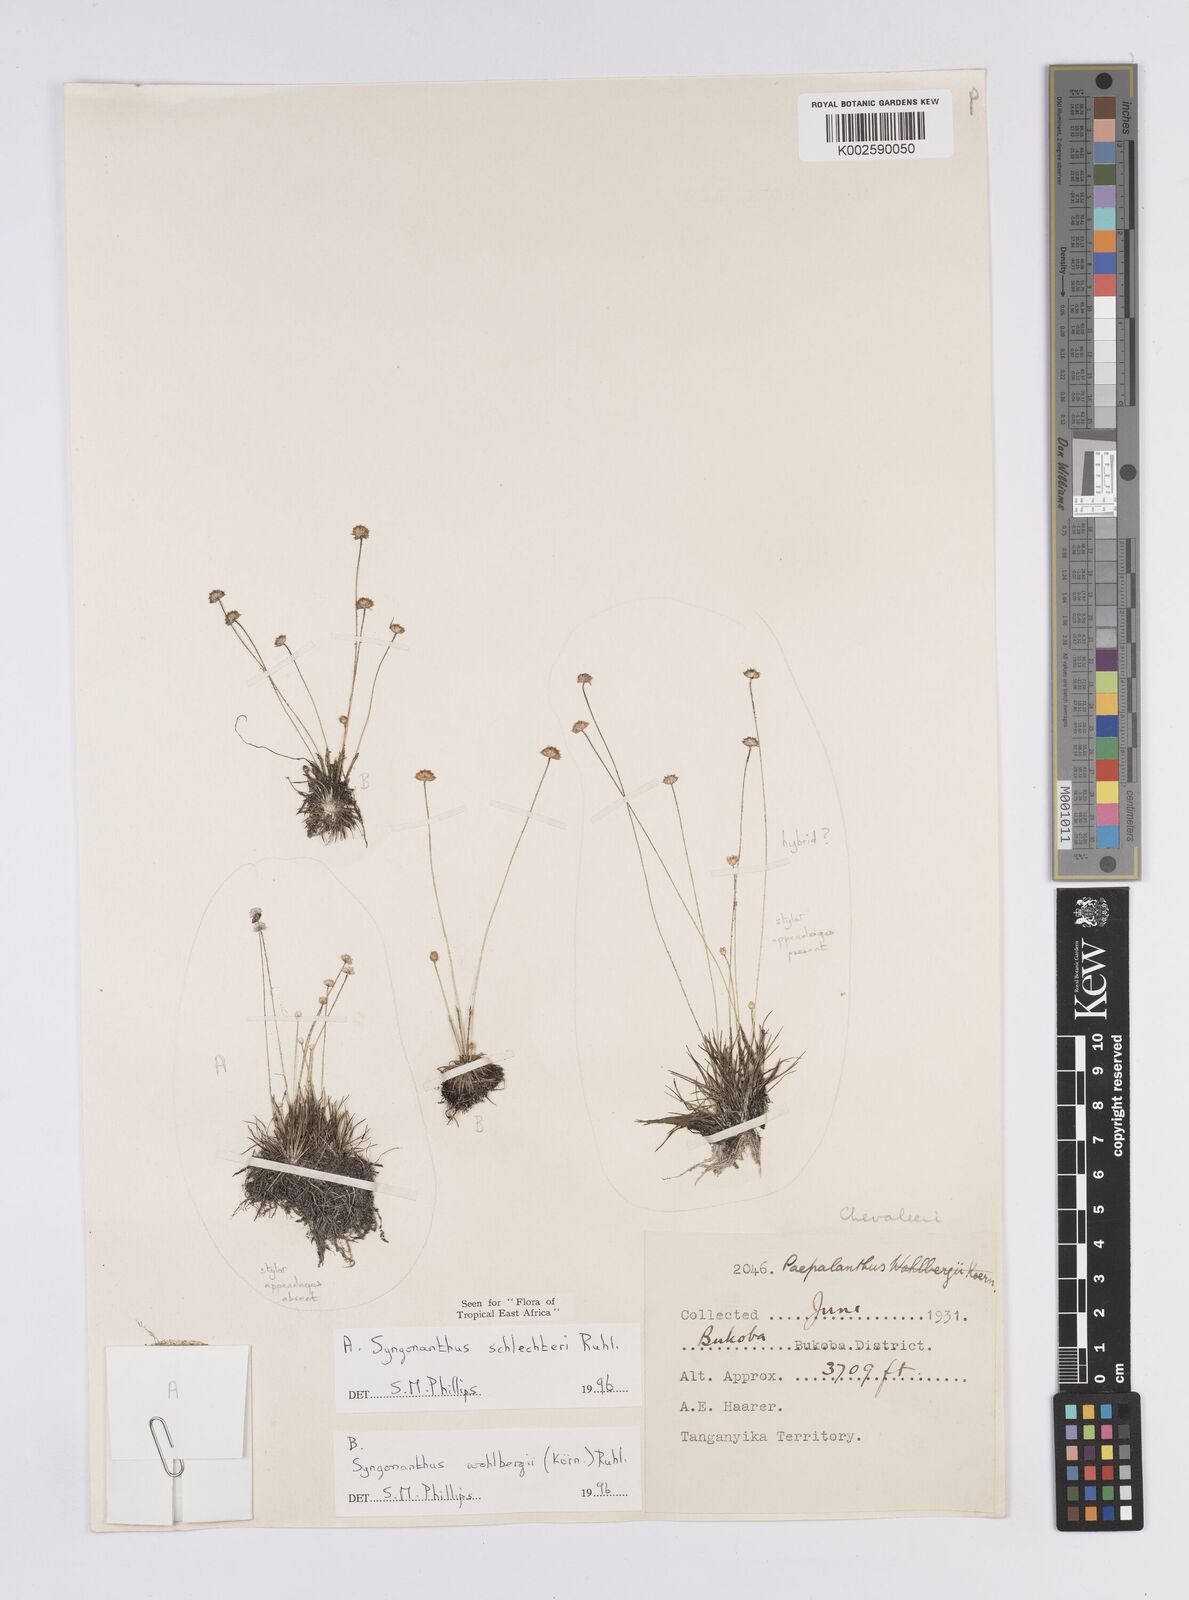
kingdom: Plantae
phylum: Tracheophyta
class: Liliopsida
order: Poales
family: Eriocaulaceae
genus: Syngonanthus
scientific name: Syngonanthus schlechteri
